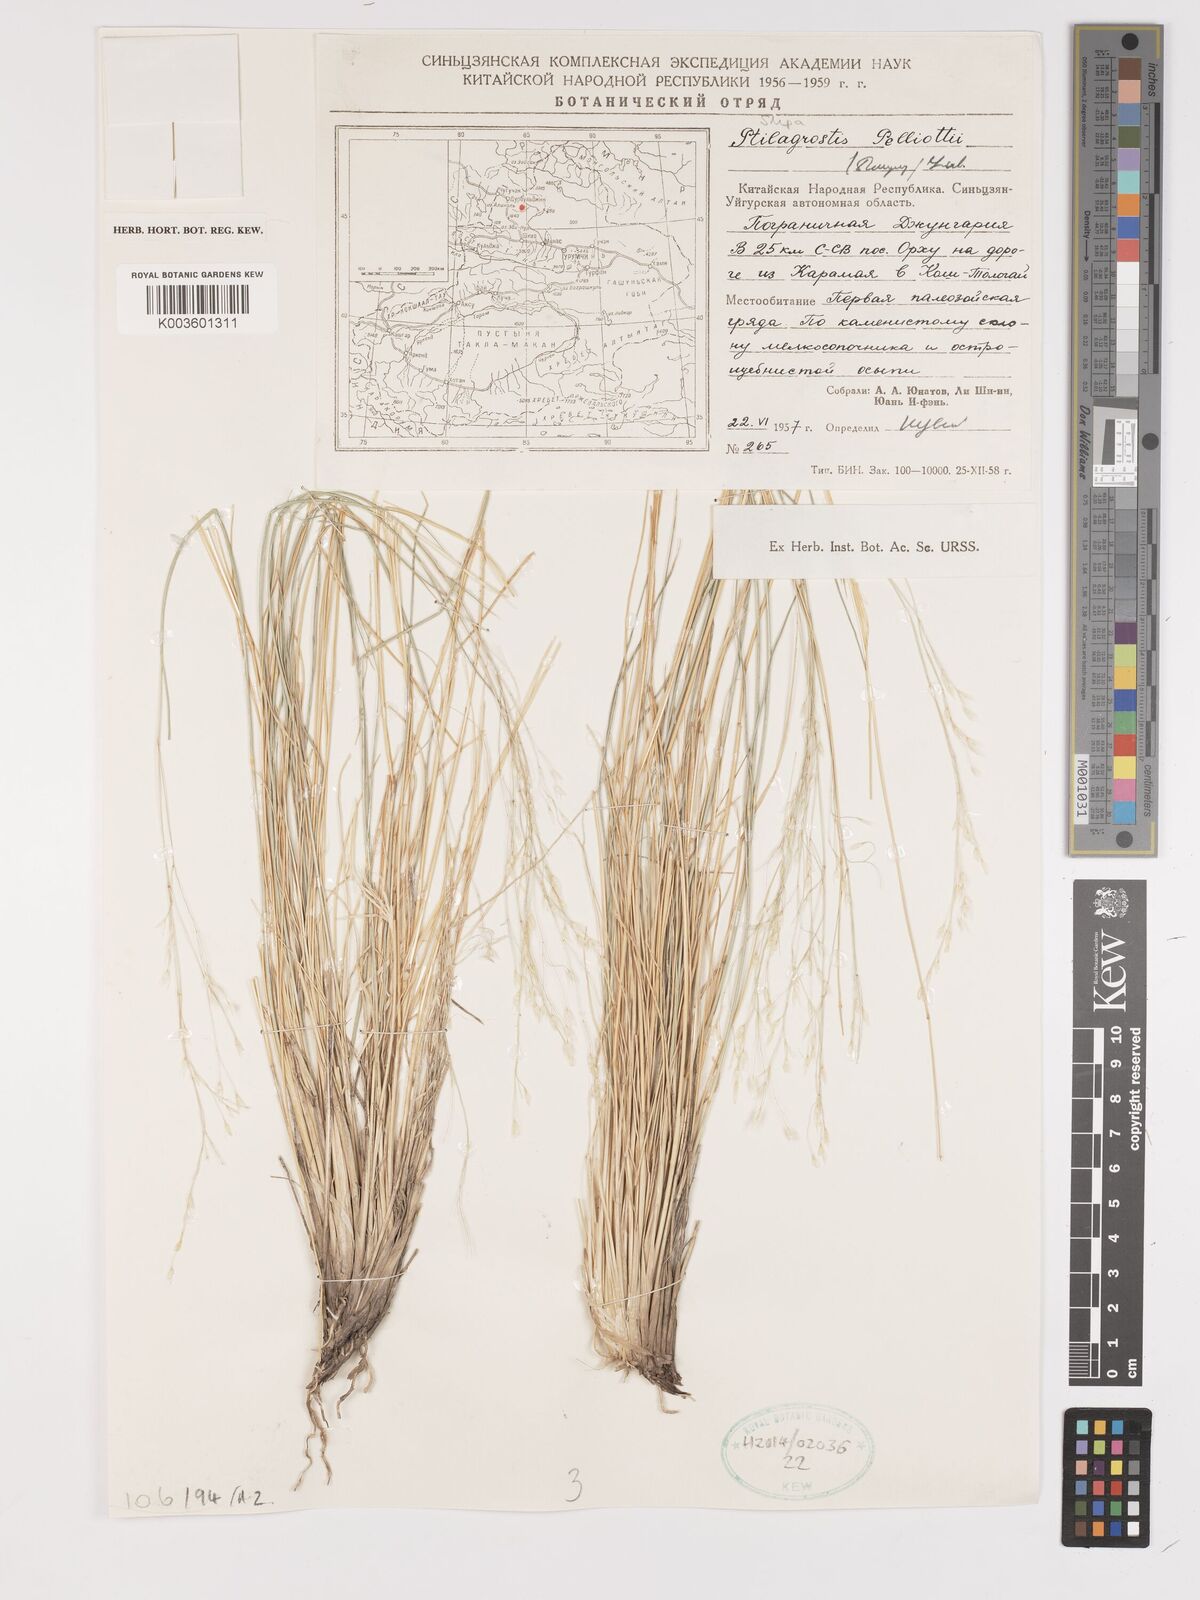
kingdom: Plantae
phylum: Tracheophyta
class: Liliopsida
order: Poales
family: Poaceae
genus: Achnatherum
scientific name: Achnatherum pelliotii
